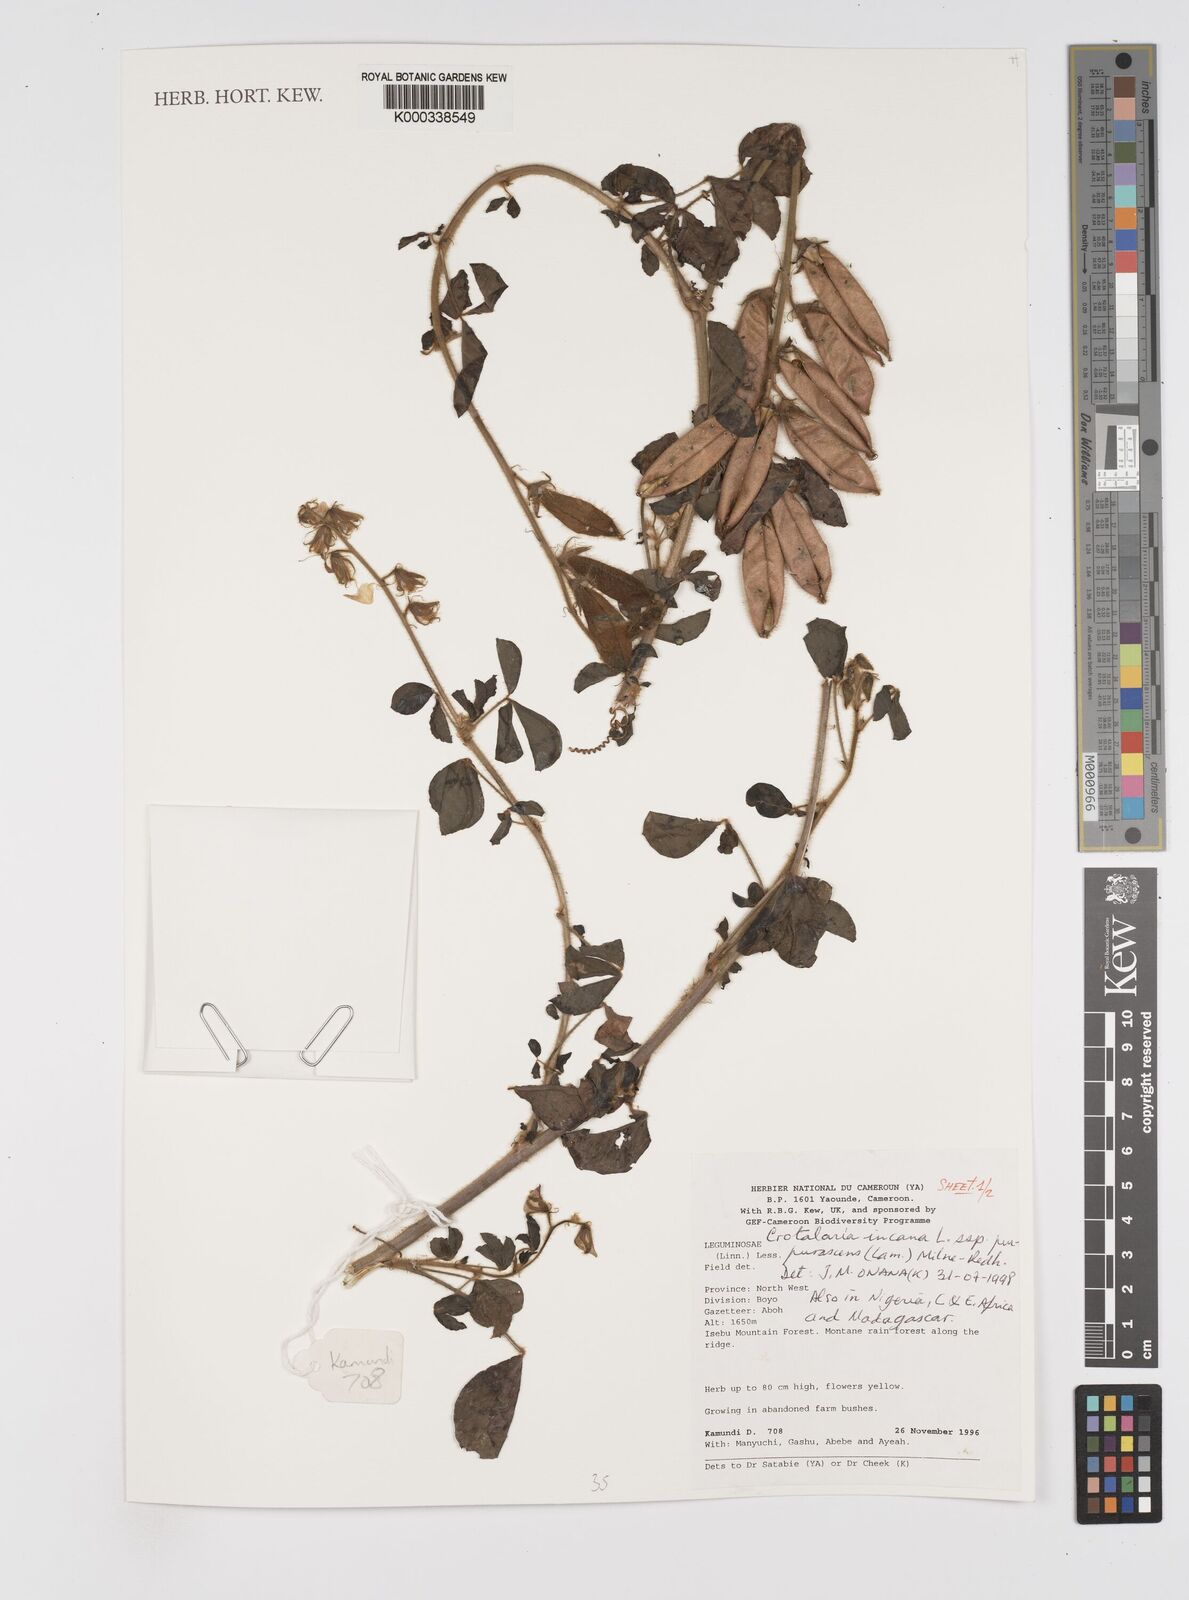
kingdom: Plantae
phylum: Tracheophyta
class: Magnoliopsida
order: Fabales
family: Fabaceae
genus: Crotalaria
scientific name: Crotalaria incana
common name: Shakeshake
